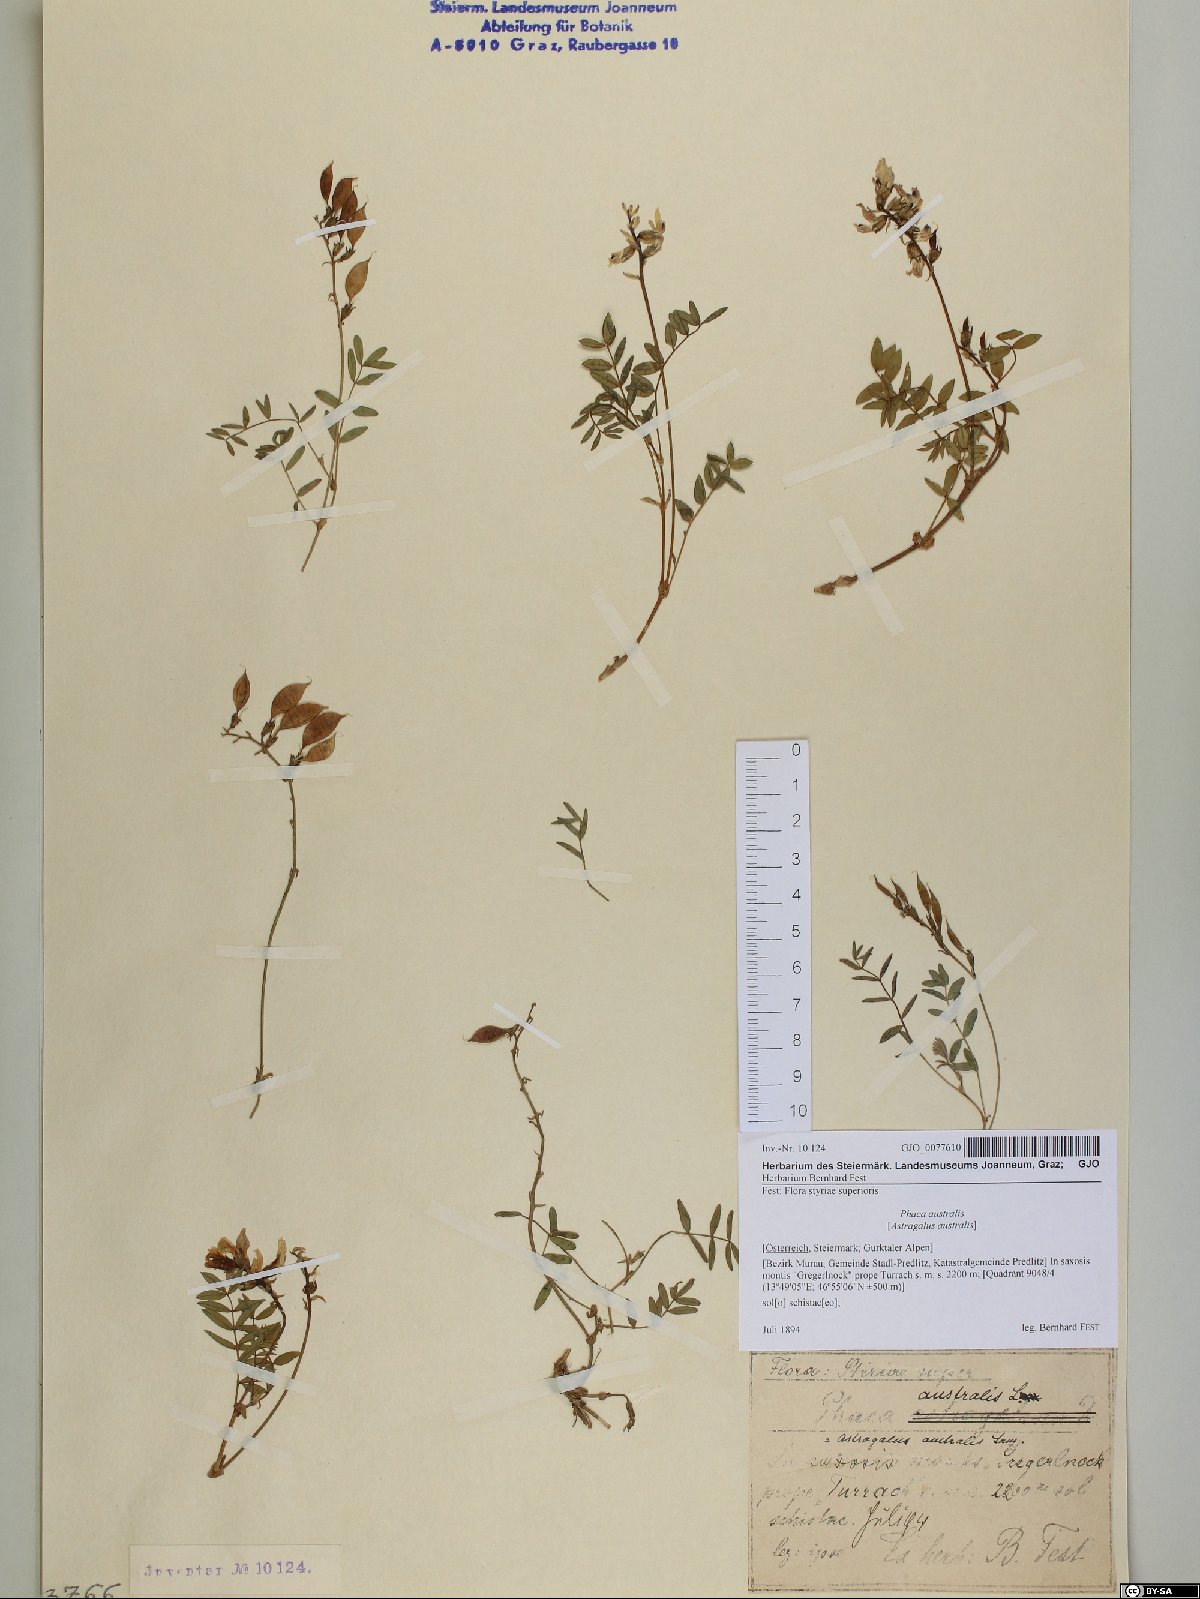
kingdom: Plantae
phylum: Tracheophyta
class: Magnoliopsida
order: Fabales
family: Fabaceae
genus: Astragalus
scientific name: Astragalus australis
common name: Indian milk-vetch
